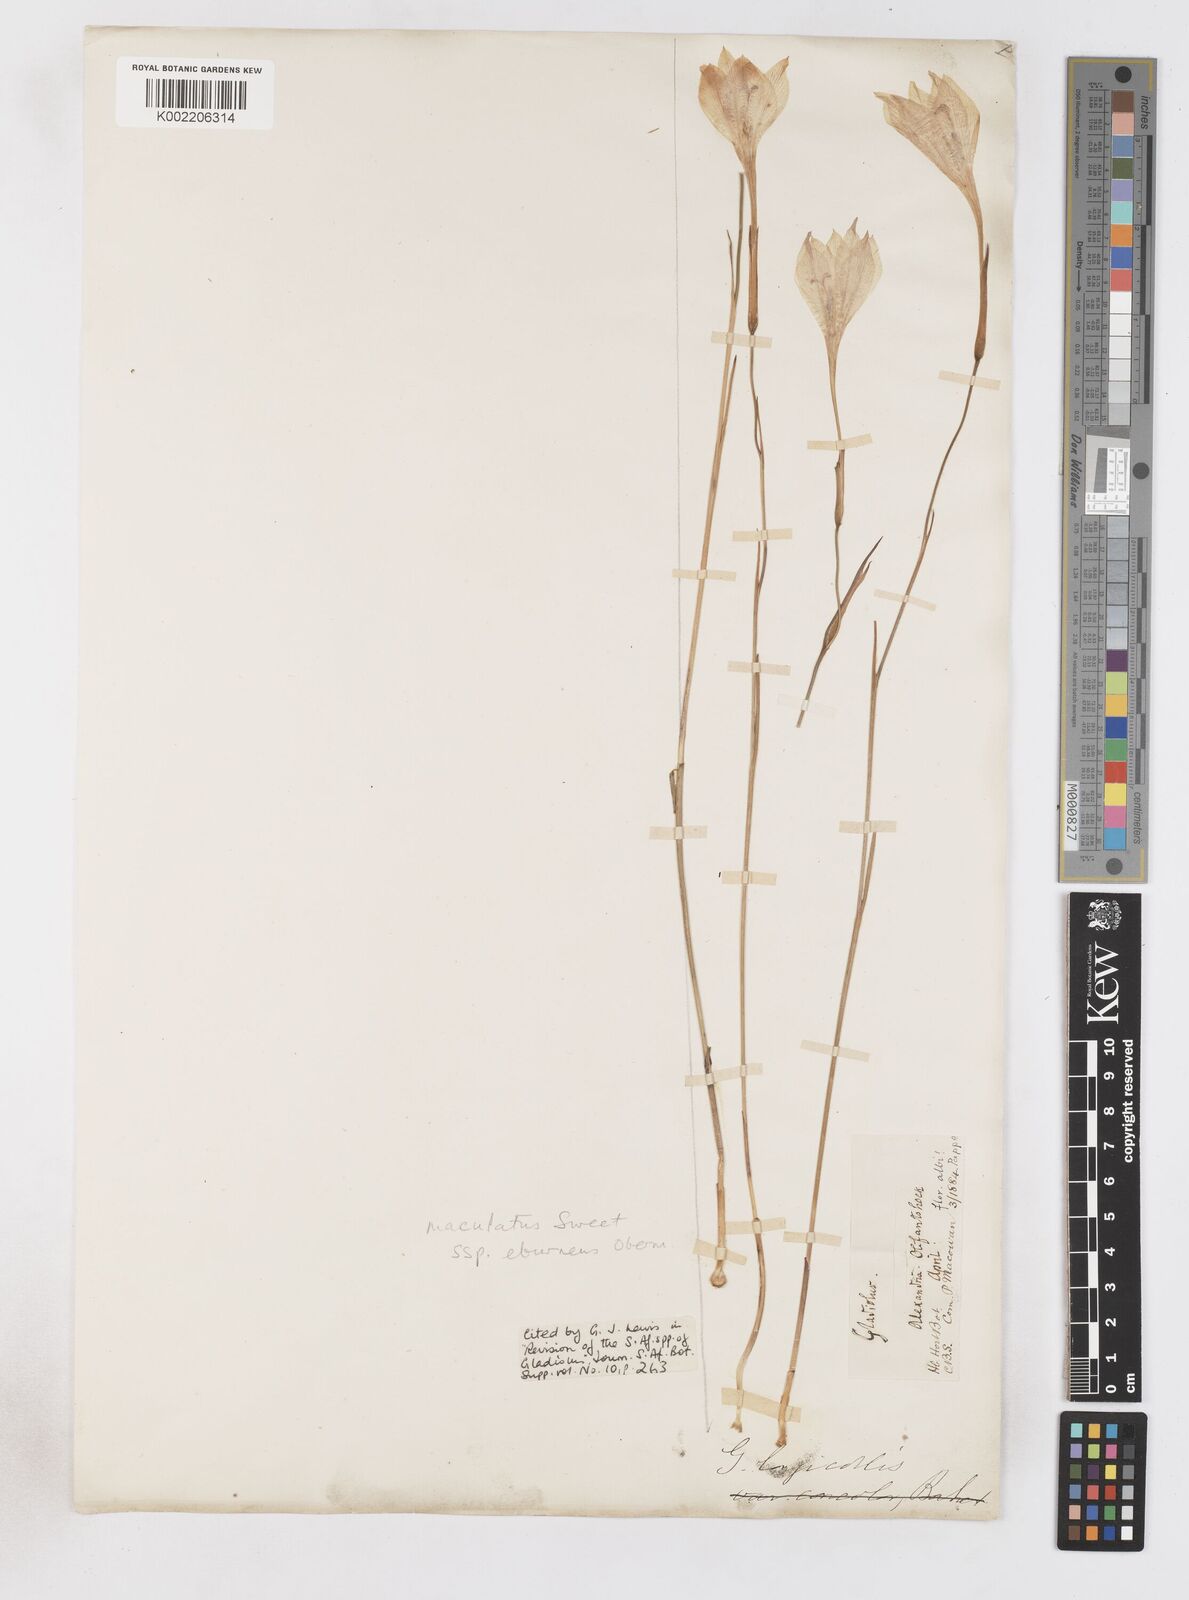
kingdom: Plantae
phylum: Tracheophyta
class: Liliopsida
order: Asparagales
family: Iridaceae
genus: Gladiolus
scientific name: Gladiolus albens
